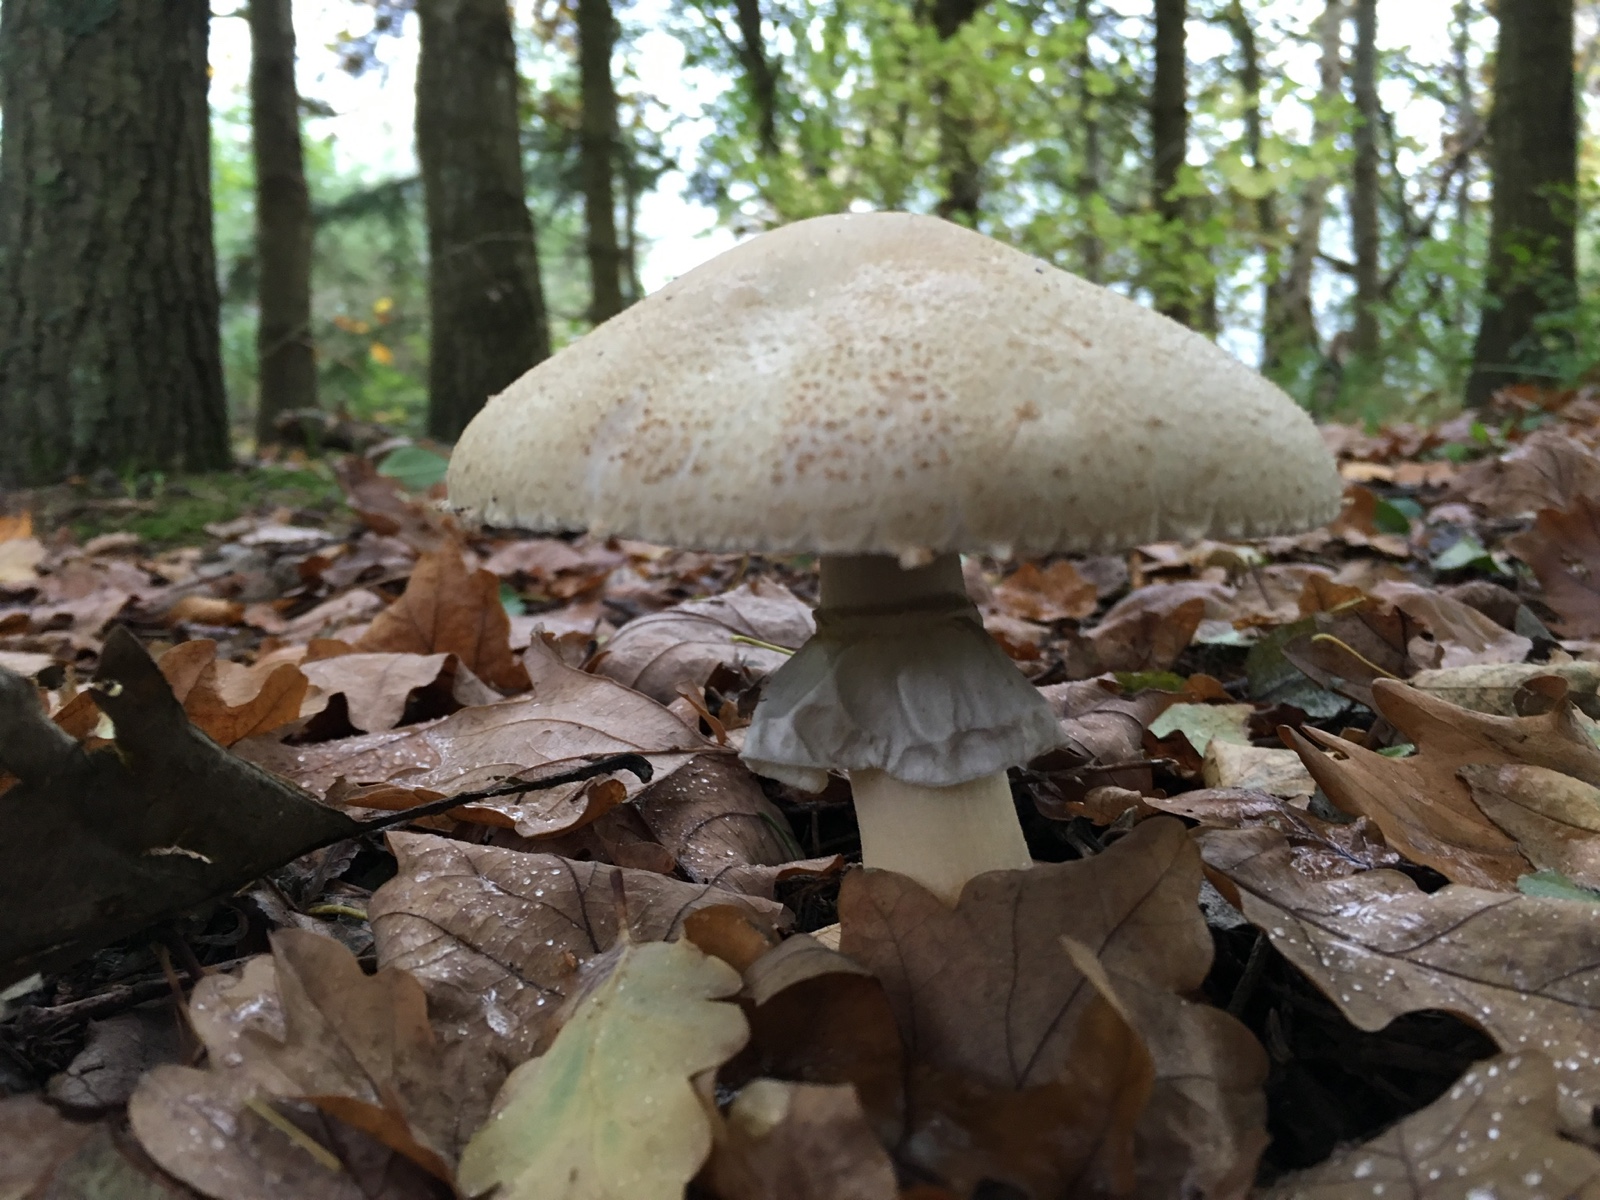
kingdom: Fungi
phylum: Basidiomycota
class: Agaricomycetes
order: Agaricales
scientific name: Agaricales
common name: champignonordenen
